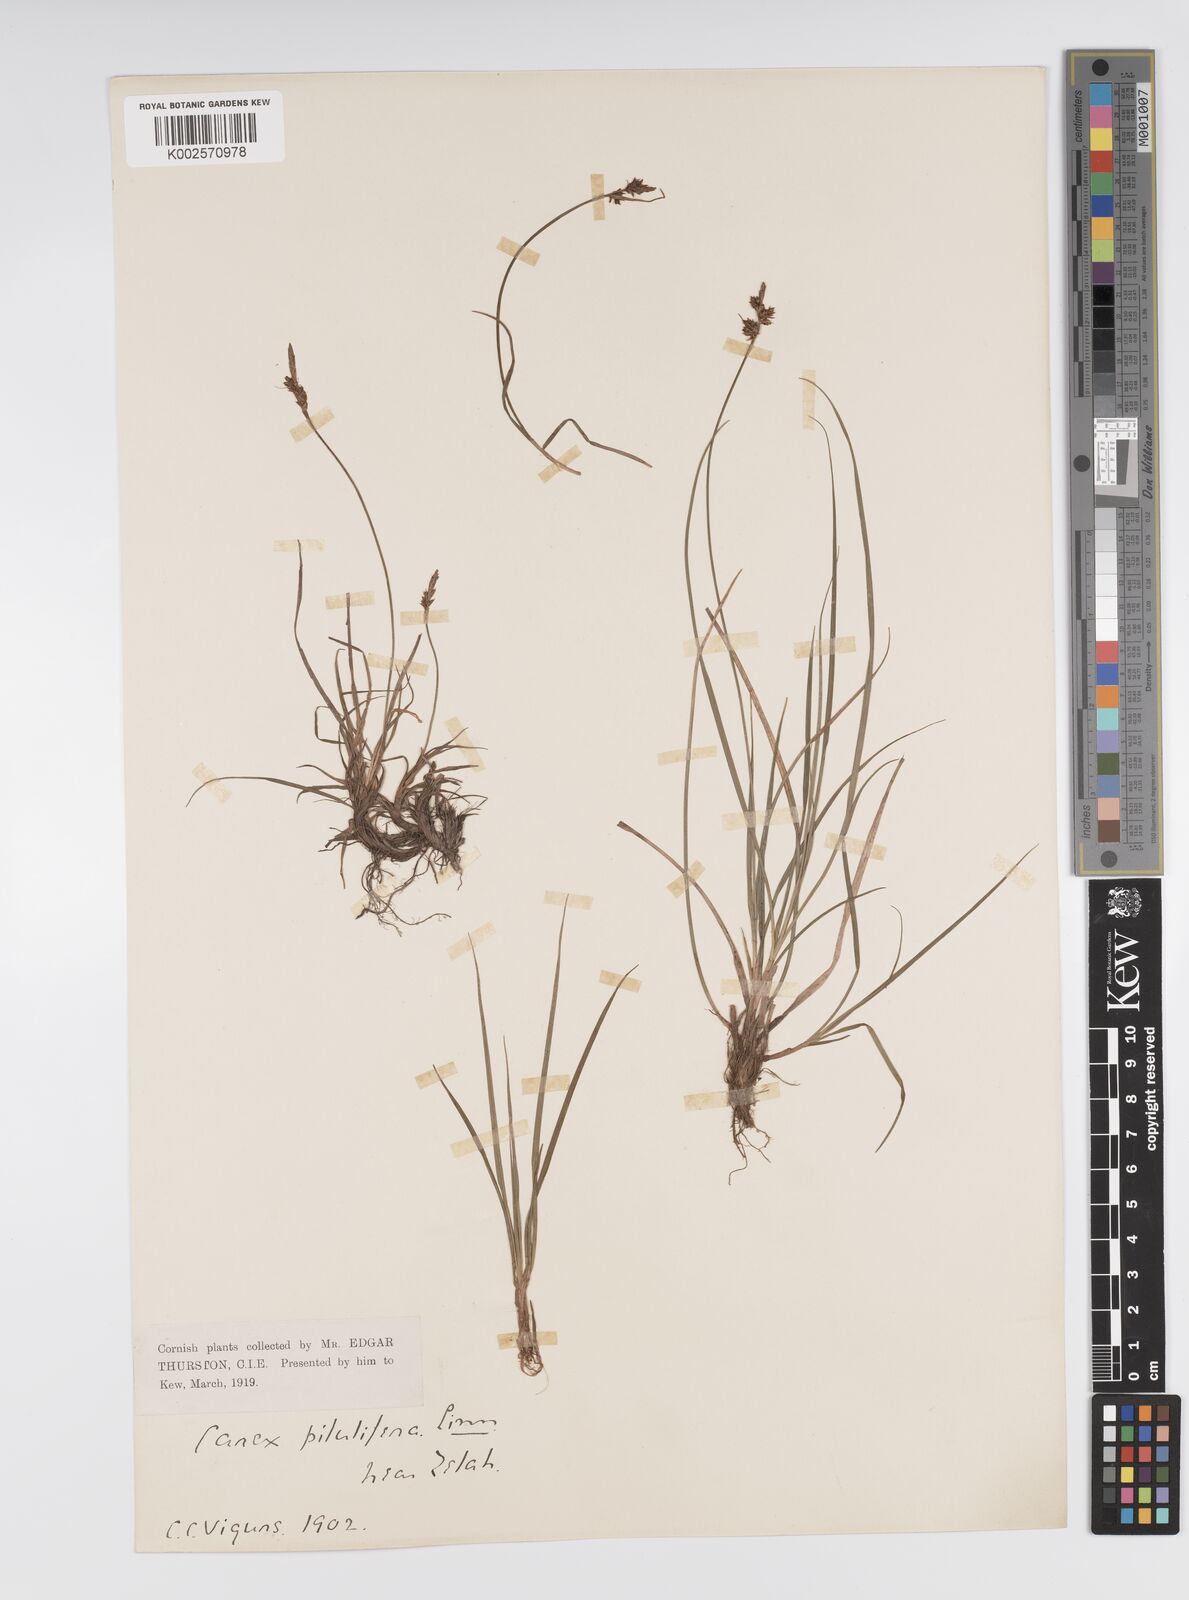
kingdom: Plantae
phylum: Tracheophyta
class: Liliopsida
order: Poales
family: Cyperaceae
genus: Carex
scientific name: Carex pilulifera
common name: Pill sedge
